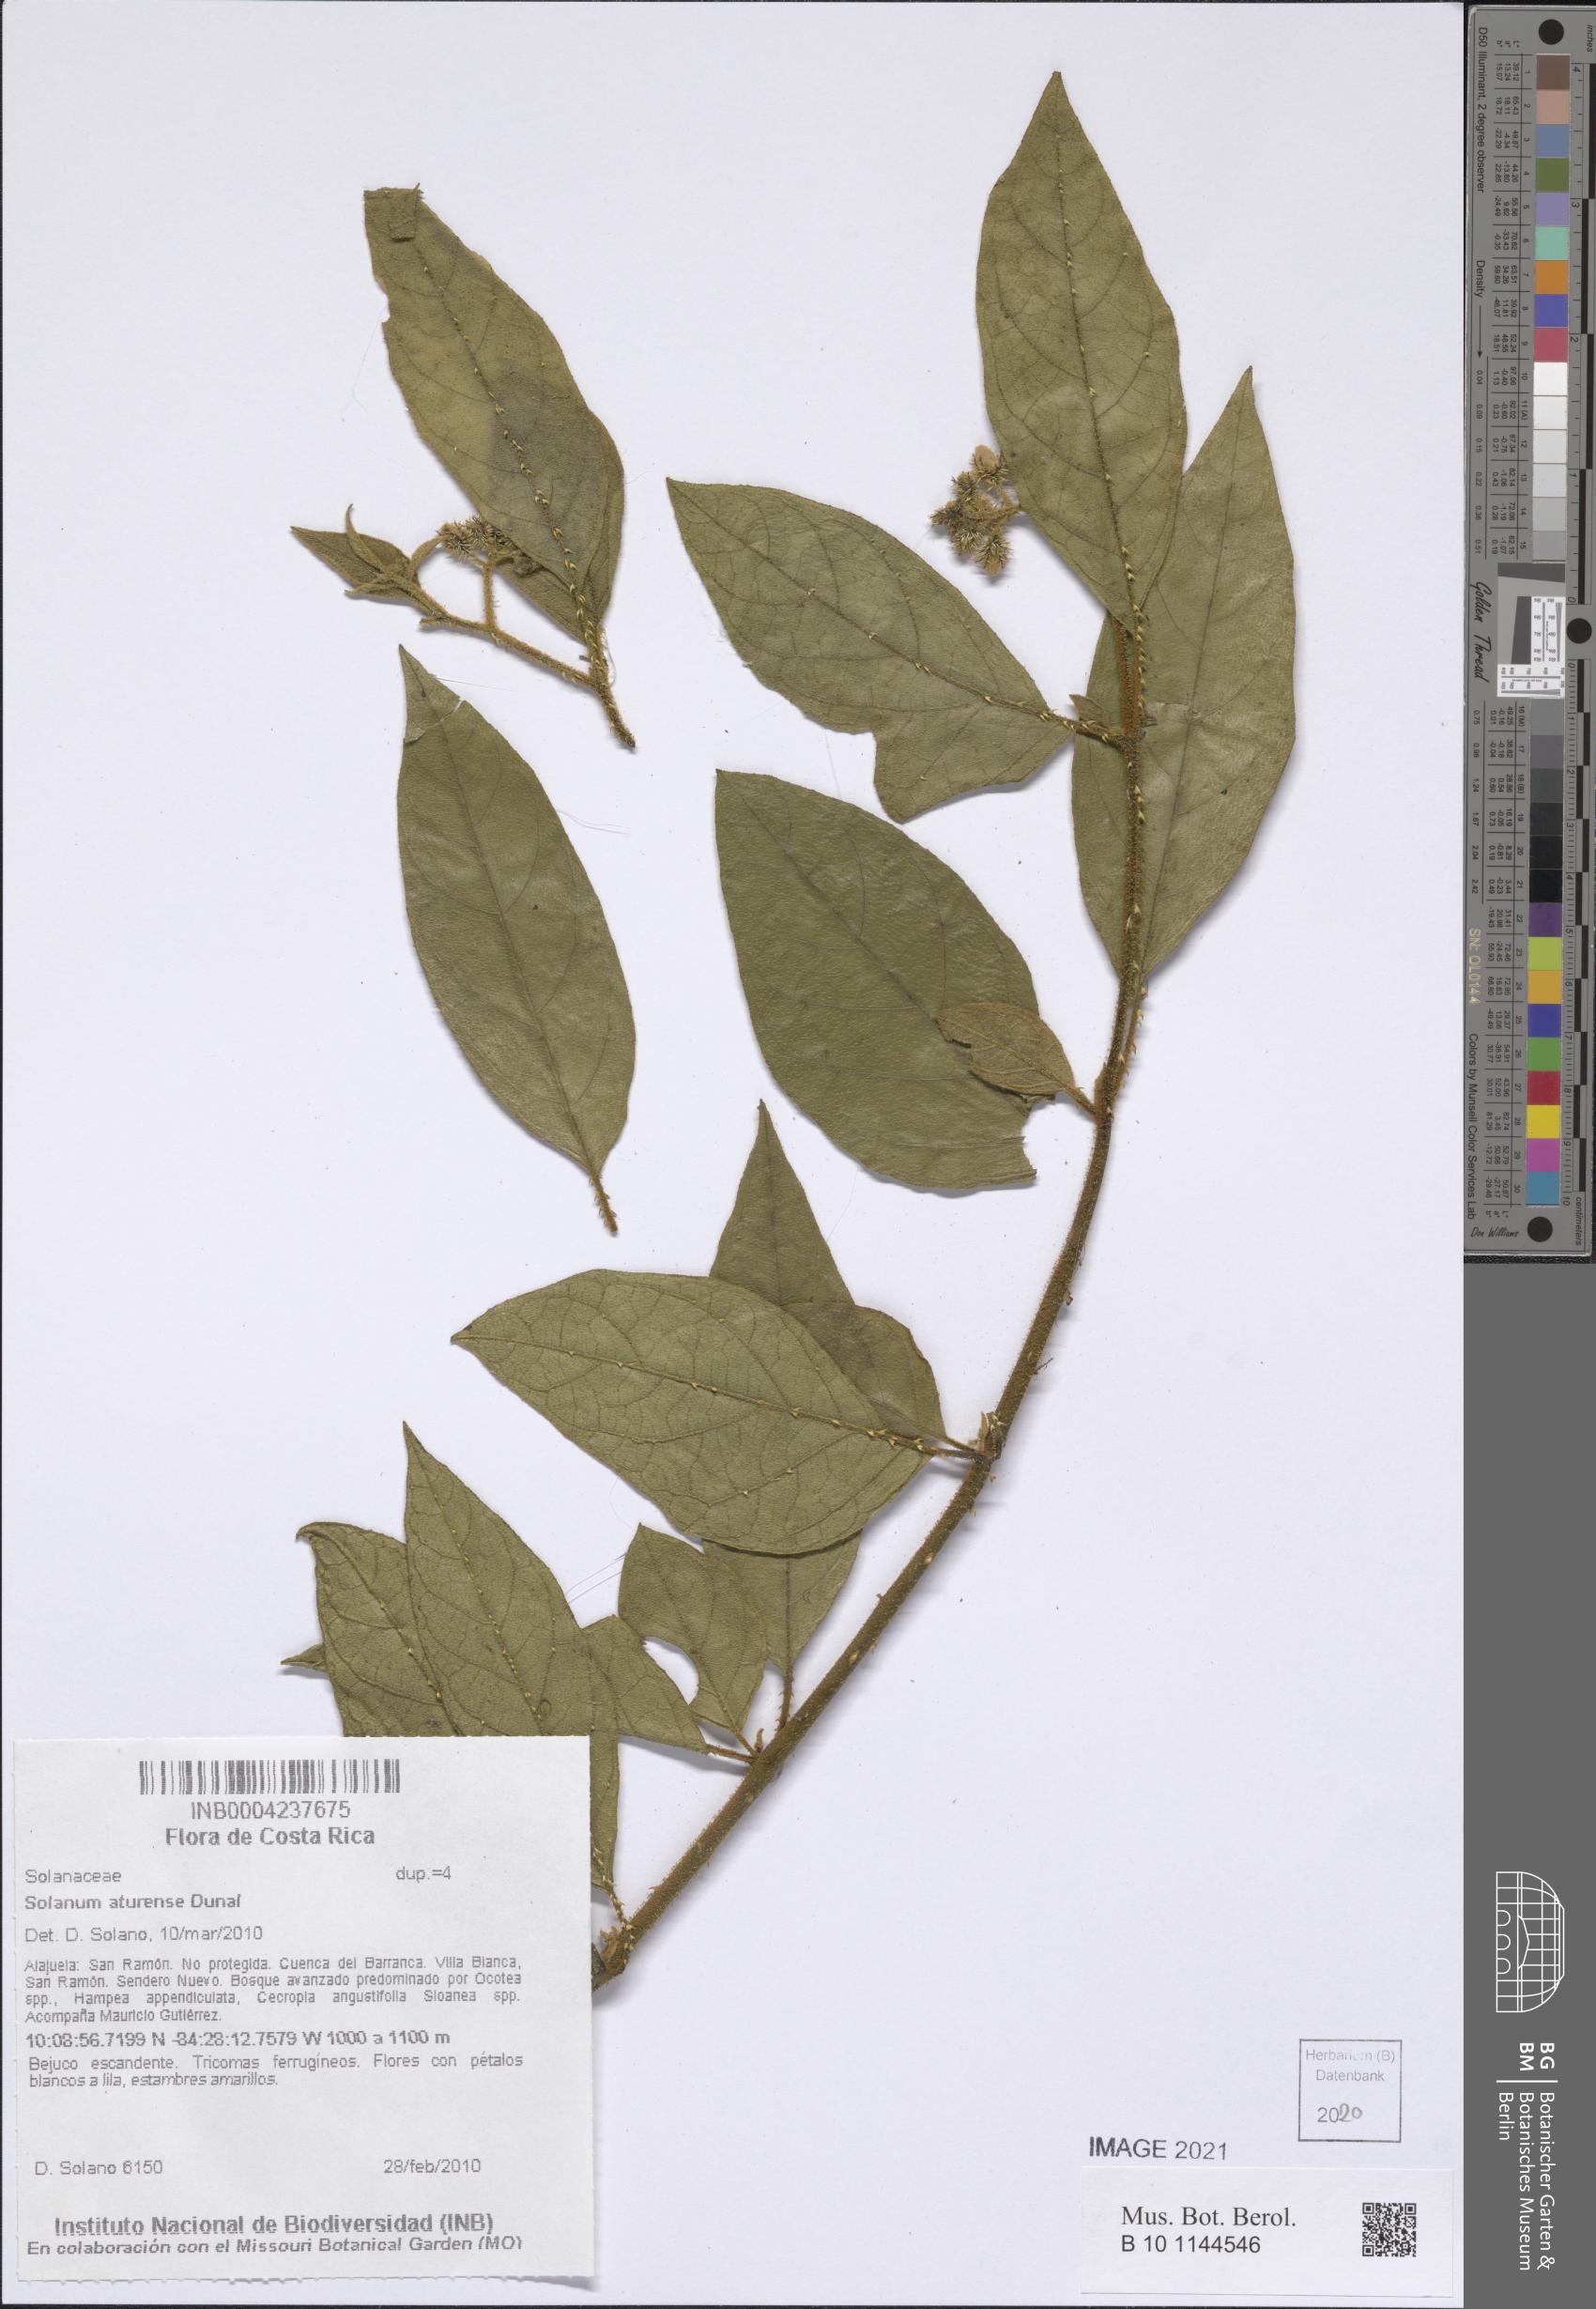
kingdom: Plantae
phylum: Tracheophyta
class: Magnoliopsida
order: Solanales
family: Solanaceae
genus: Solanum
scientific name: Solanum aturense
